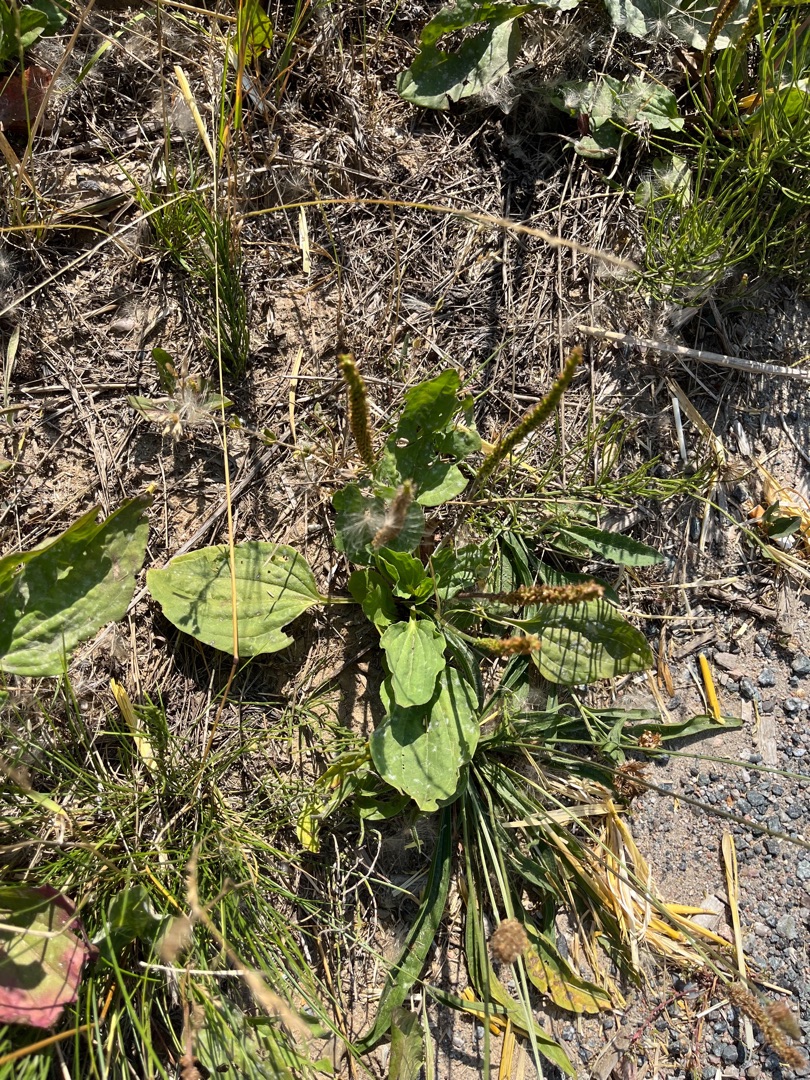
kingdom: Plantae
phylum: Tracheophyta
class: Magnoliopsida
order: Lamiales
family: Plantaginaceae
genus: Plantago
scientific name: Plantago major
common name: Glat vejbred
